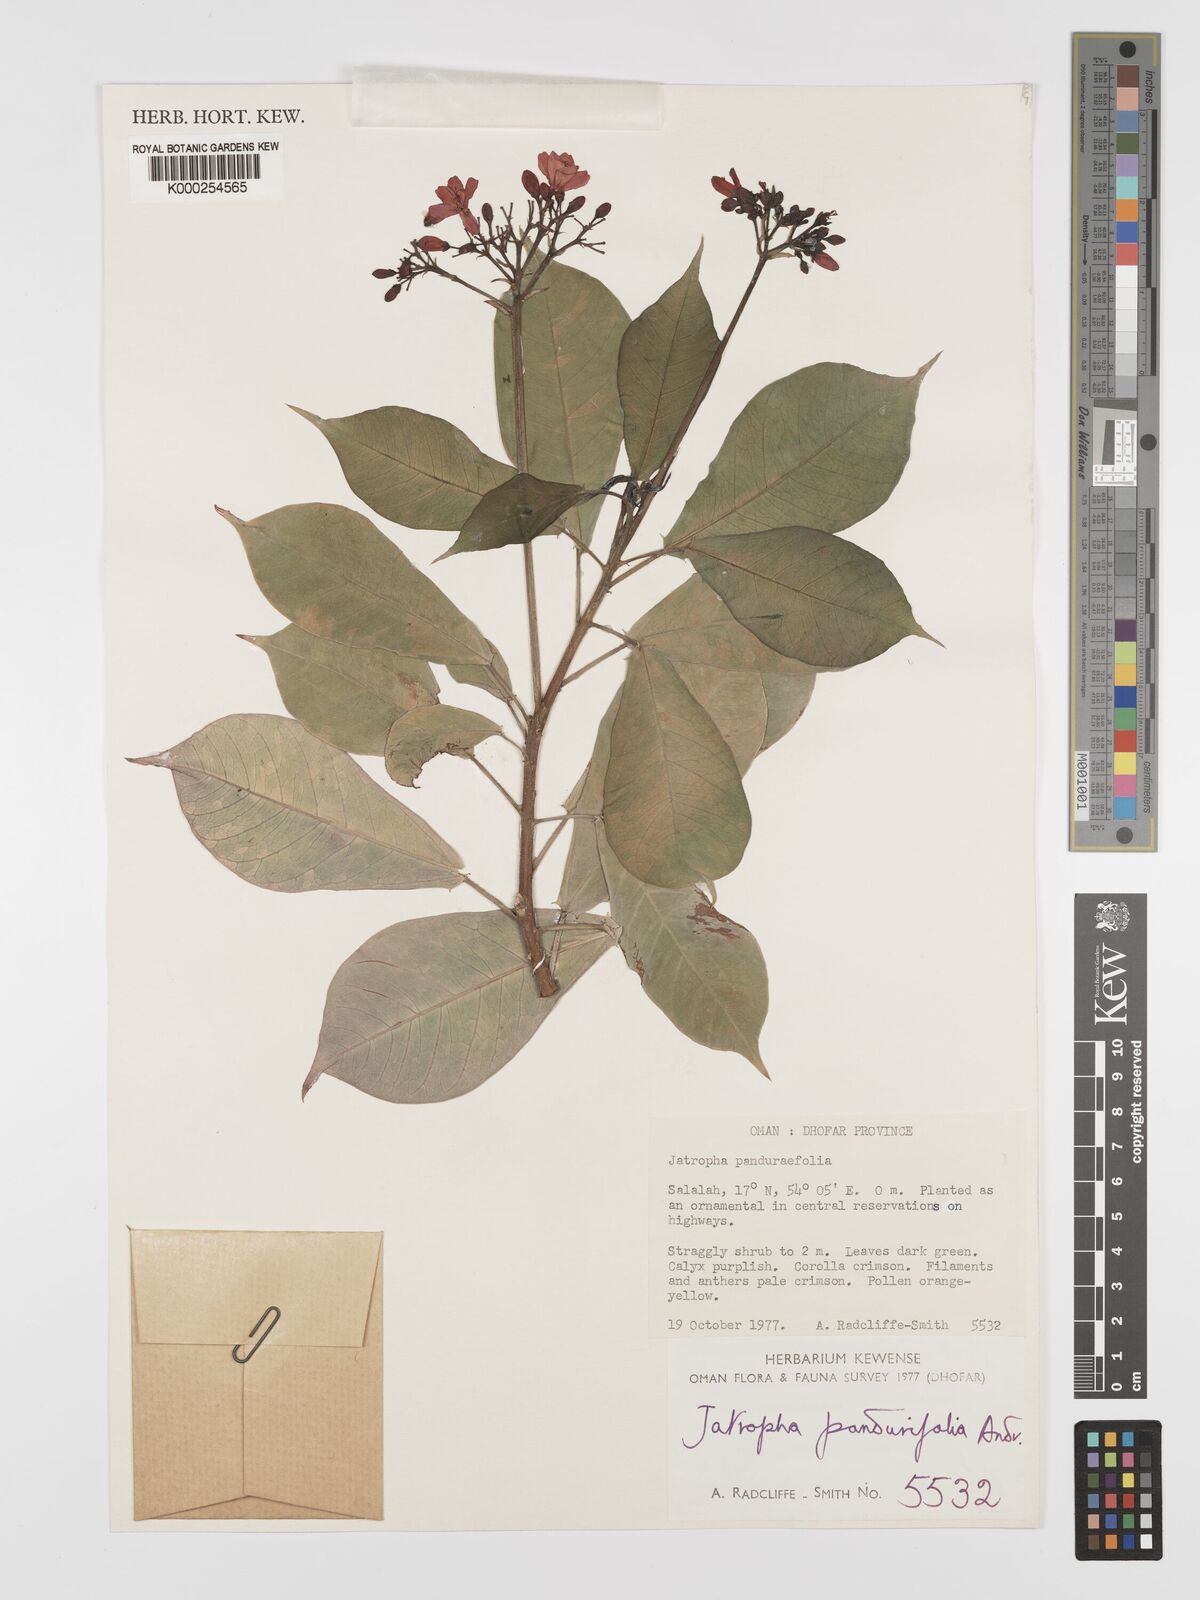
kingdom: Plantae
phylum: Tracheophyta
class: Magnoliopsida
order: Malpighiales
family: Euphorbiaceae
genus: Jatropha
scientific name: Jatropha integerrima
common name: Peregrina
